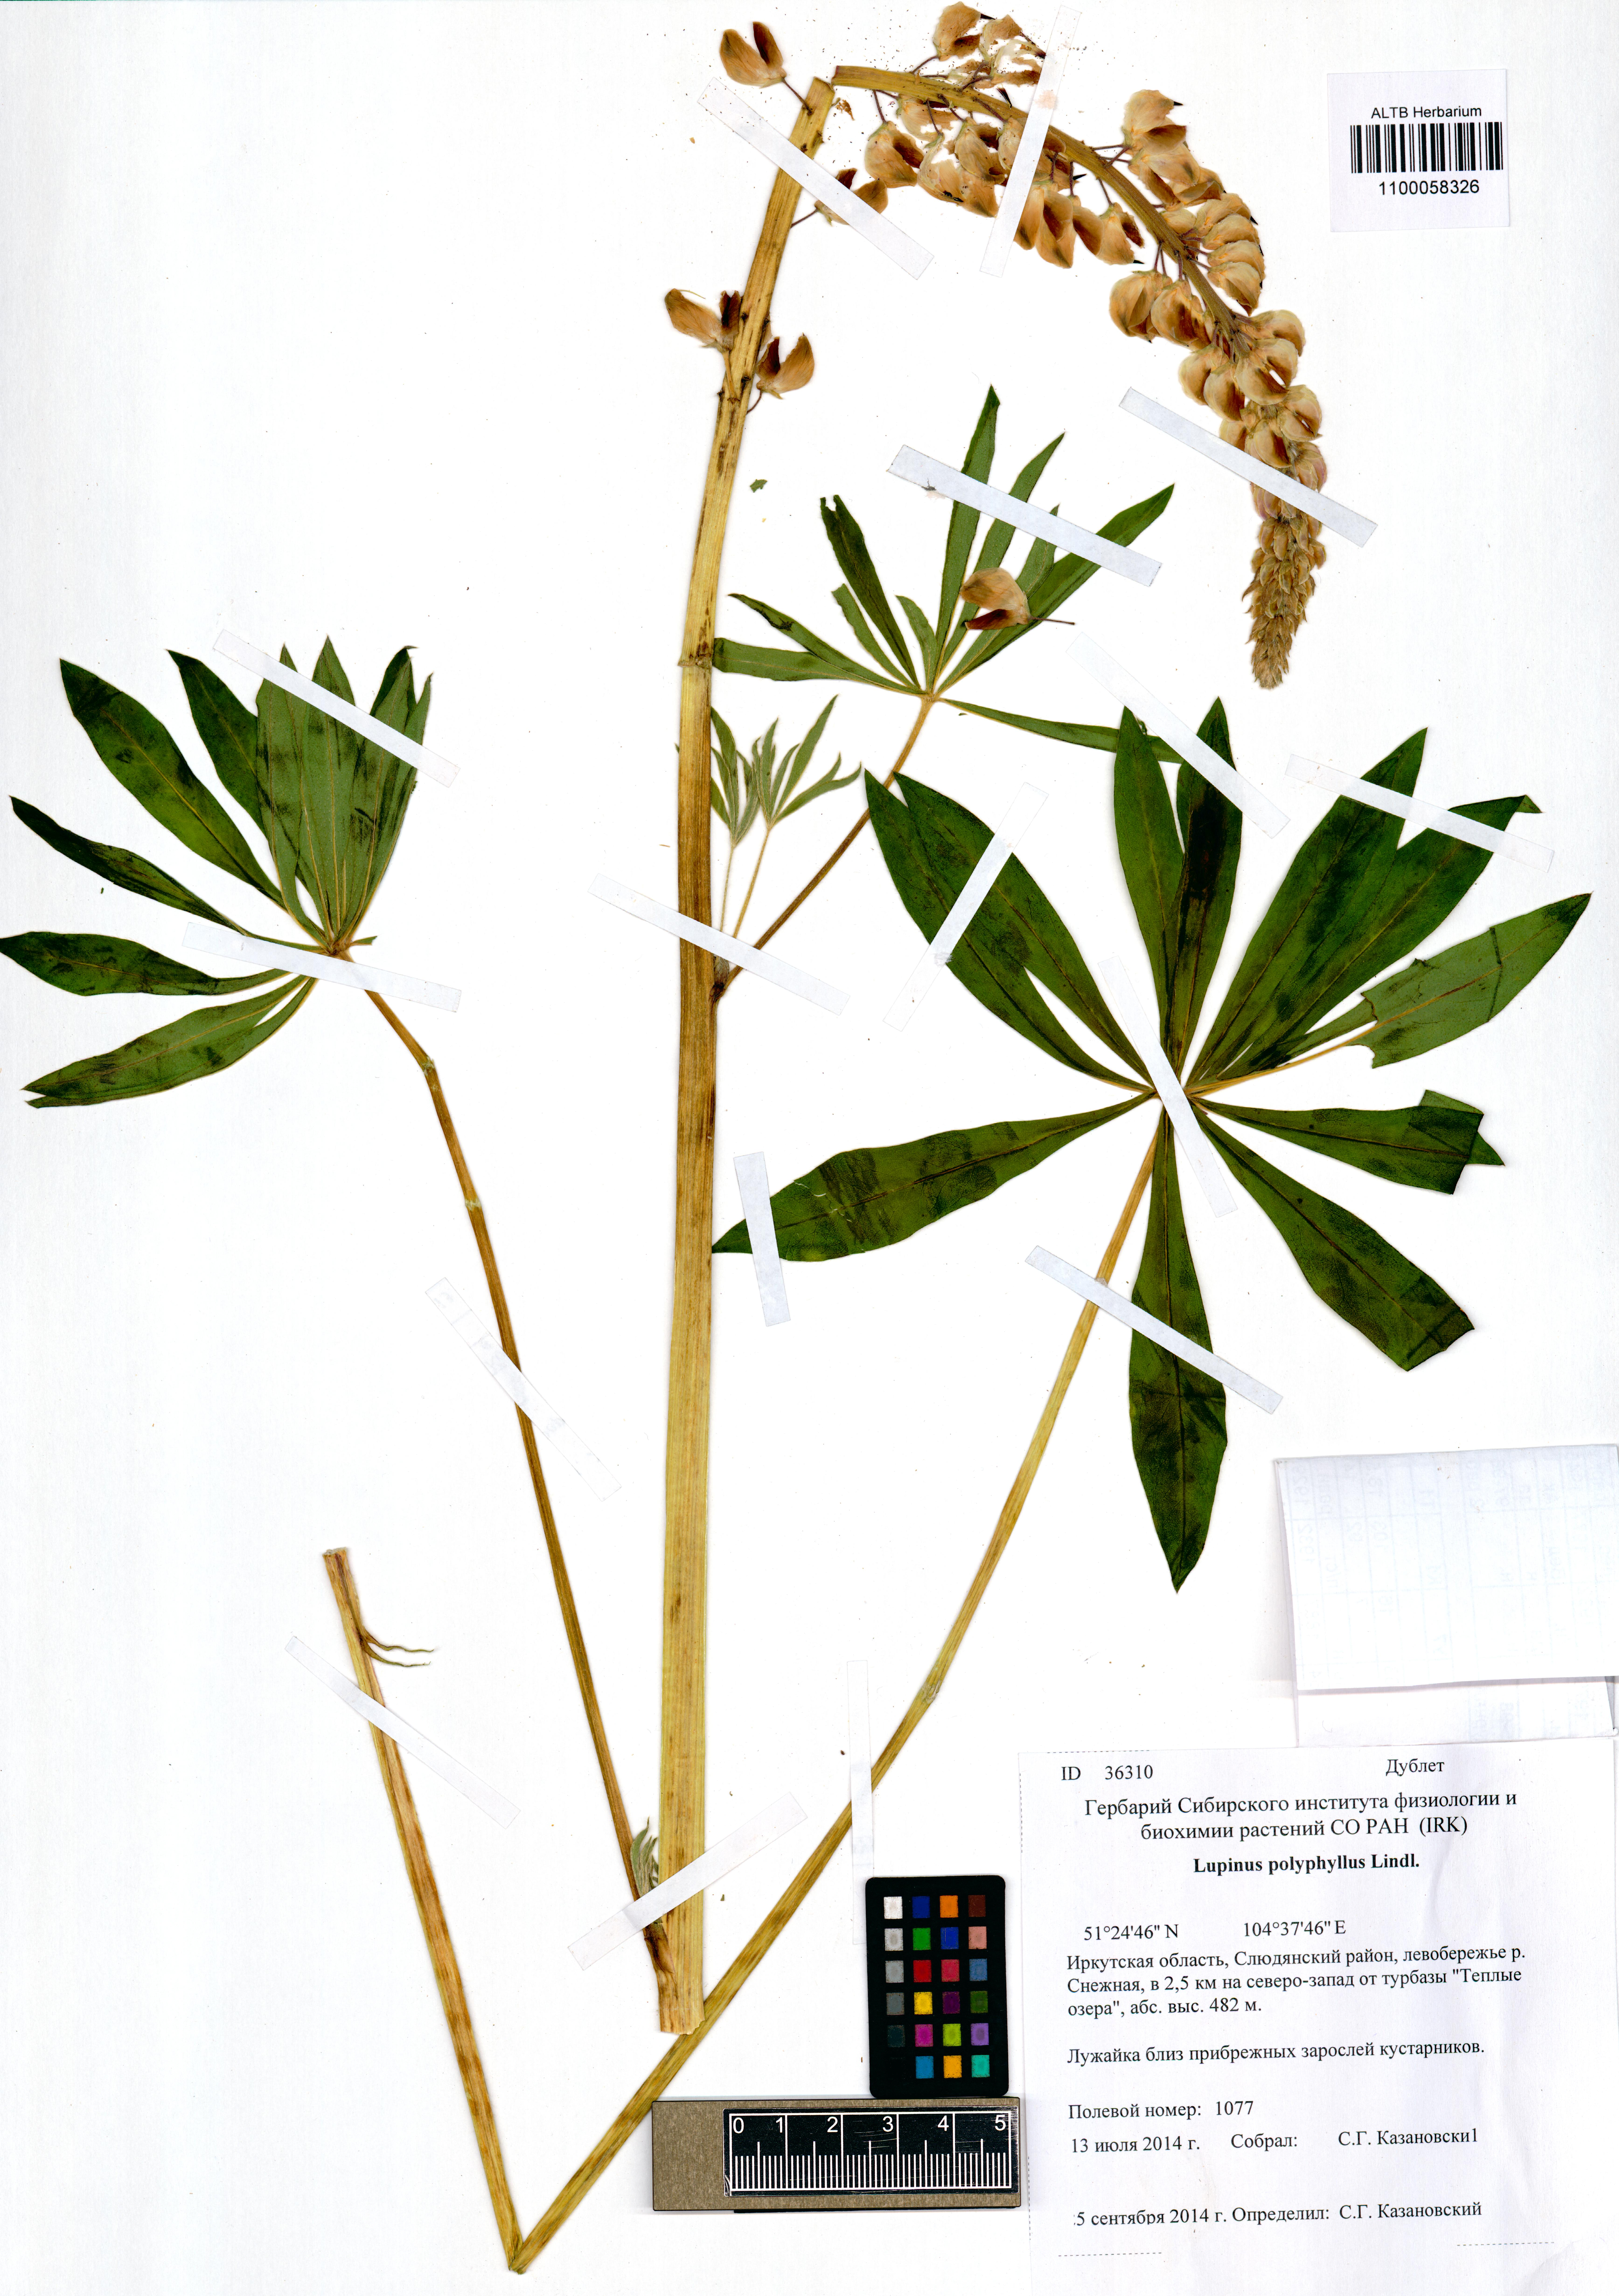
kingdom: Plantae
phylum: Tracheophyta
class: Magnoliopsida
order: Fabales
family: Fabaceae
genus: Trifolium
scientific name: Trifolium polyphyllum
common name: Many-leaf clover
